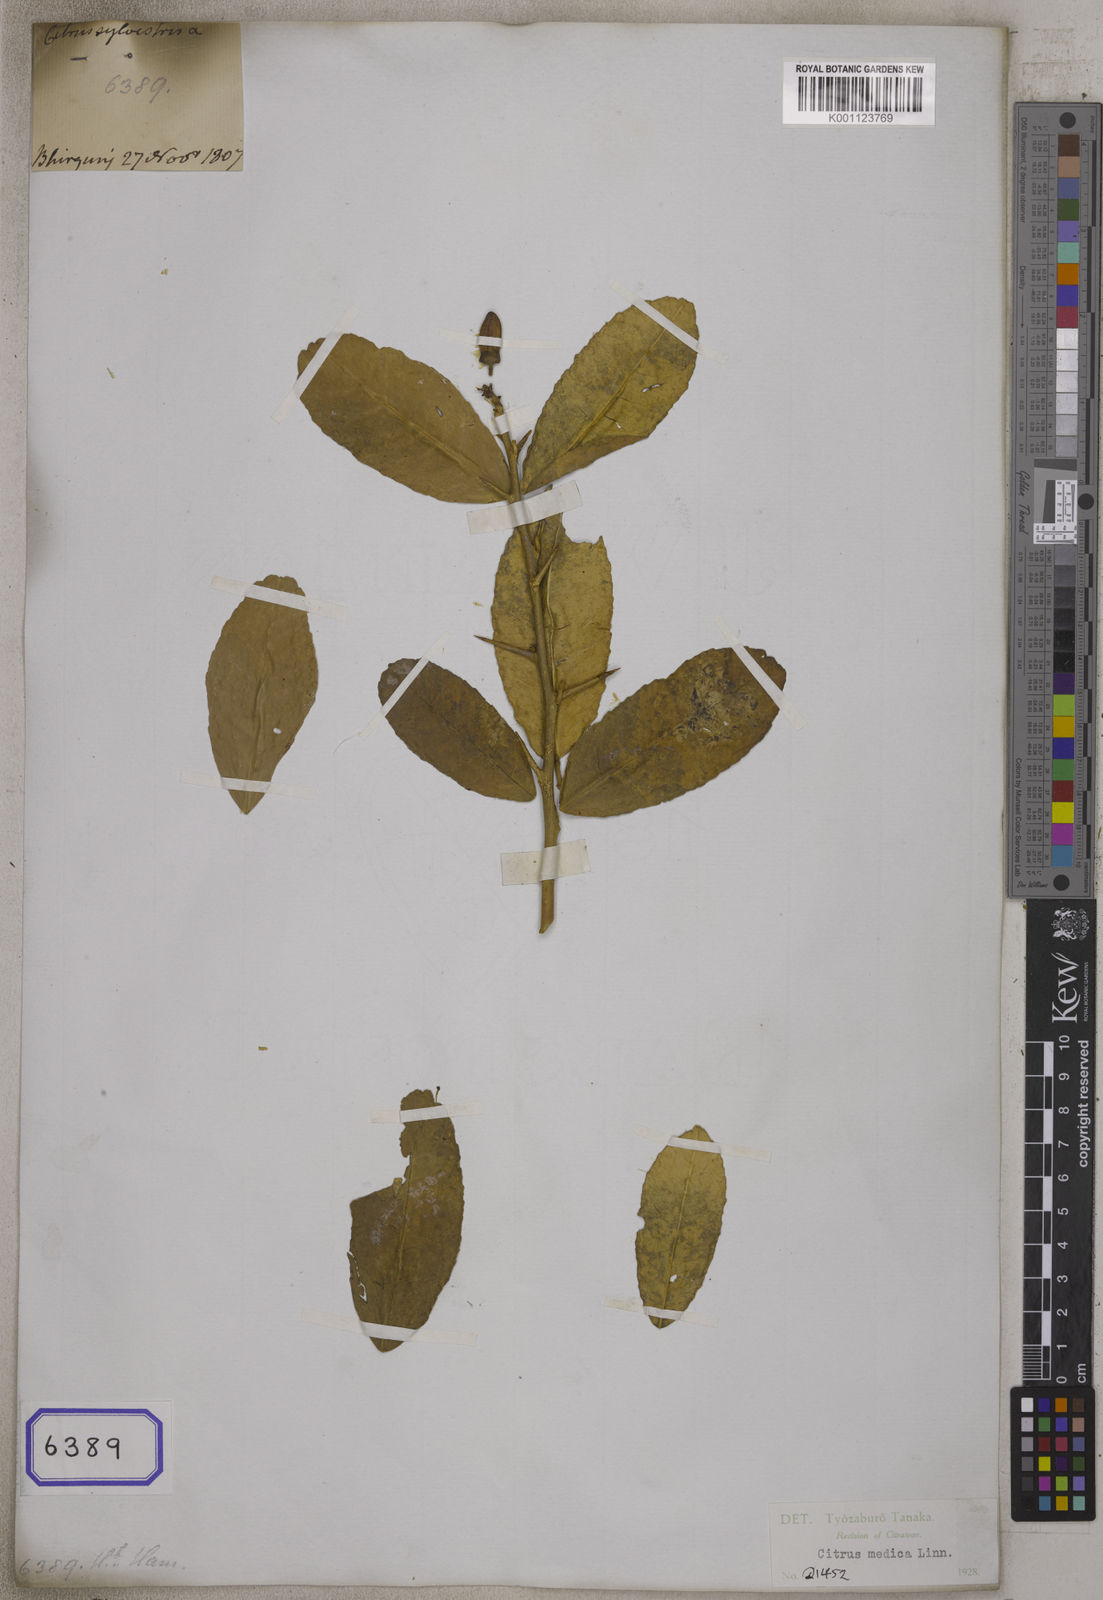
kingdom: Plantae
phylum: Tracheophyta
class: Magnoliopsida
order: Sapindales
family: Rutaceae
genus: Citrus
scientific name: Citrus limon
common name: Lemon
